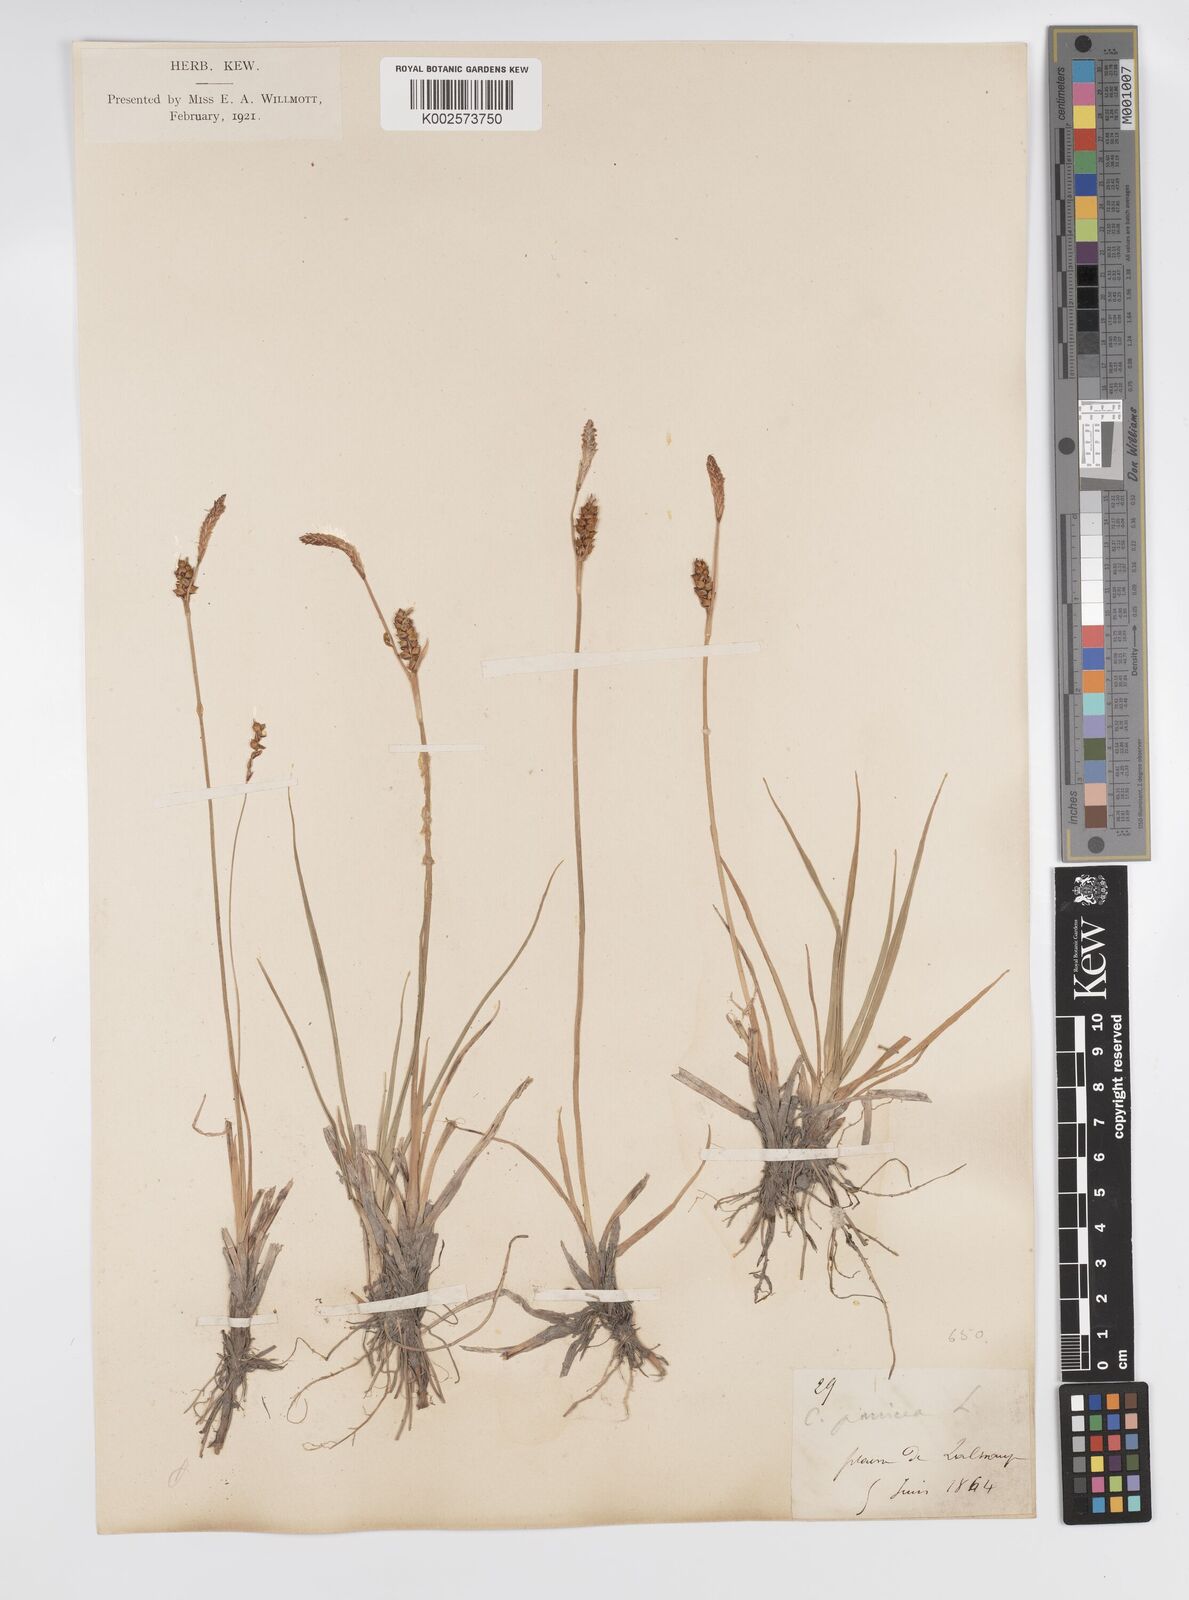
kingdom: Plantae
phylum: Tracheophyta
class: Liliopsida
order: Poales
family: Cyperaceae
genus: Carex
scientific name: Carex panicea
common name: Carnation sedge
